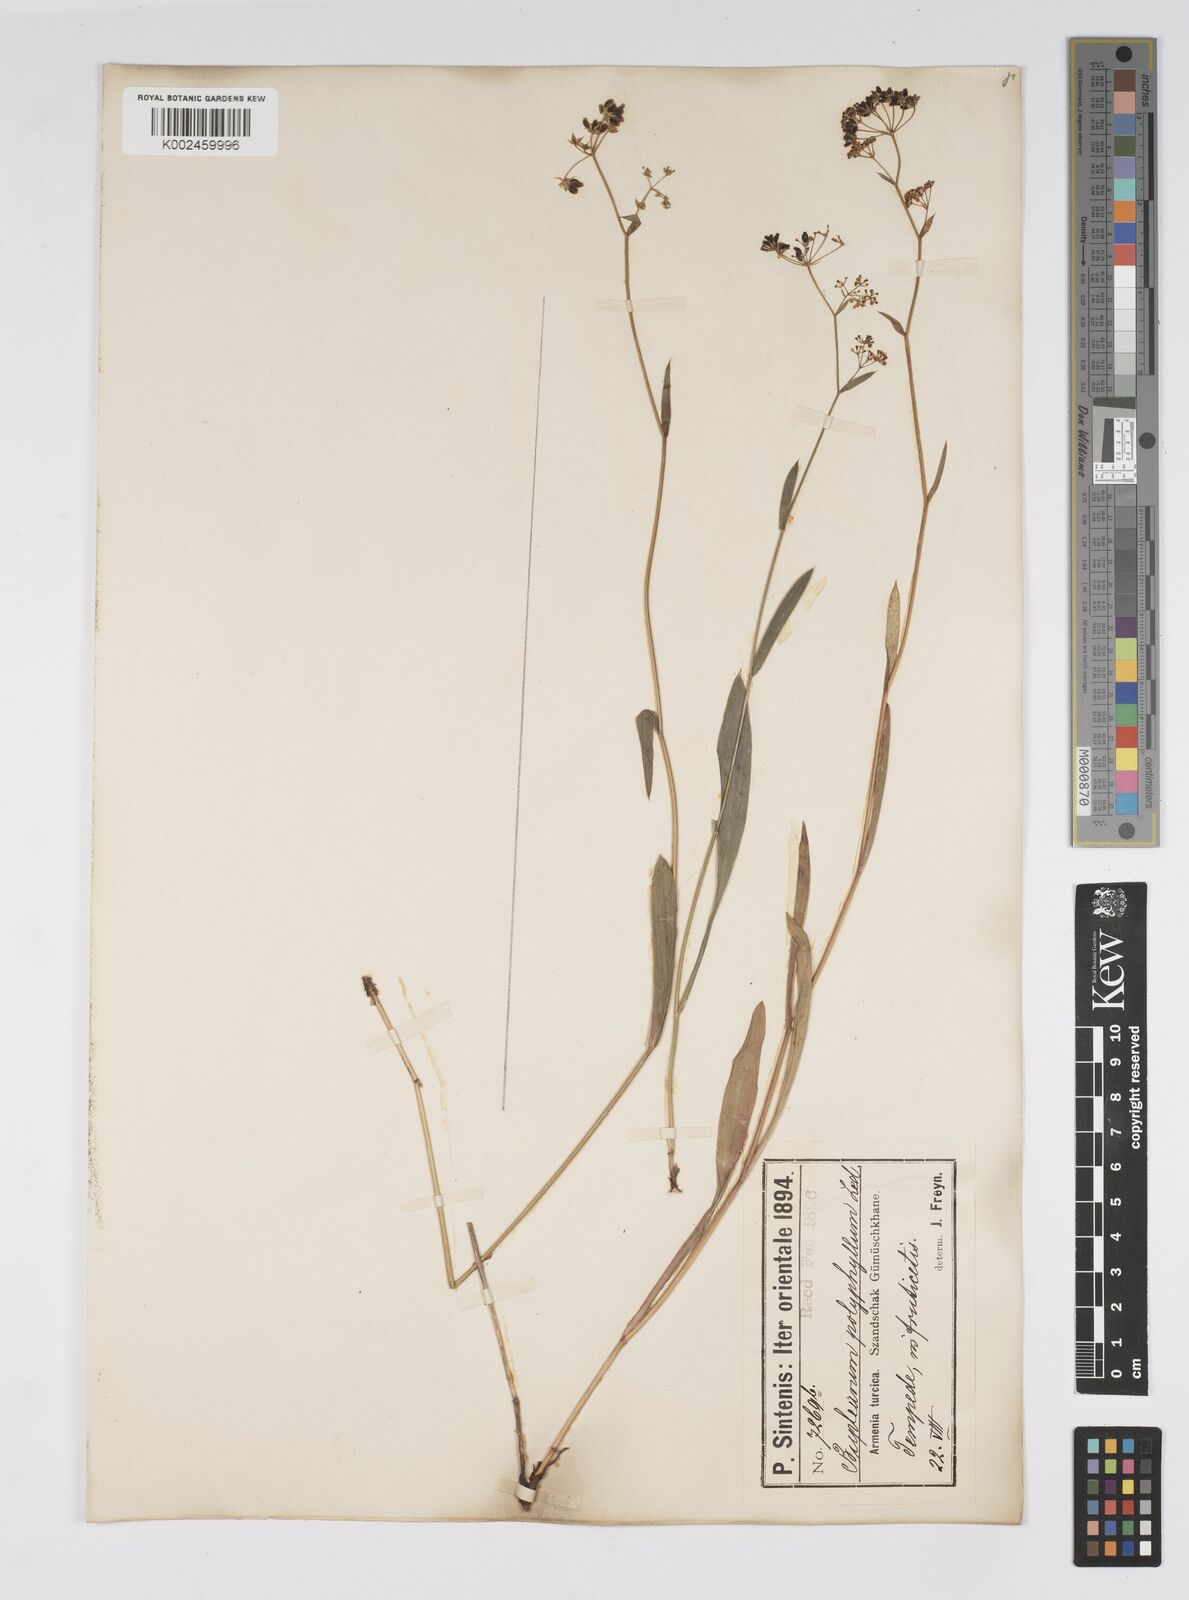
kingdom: Plantae
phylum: Tracheophyta
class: Magnoliopsida
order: Apiales
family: Apiaceae
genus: Bupleurum
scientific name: Bupleurum falcatum
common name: Sickle-leaved hare's-ear
